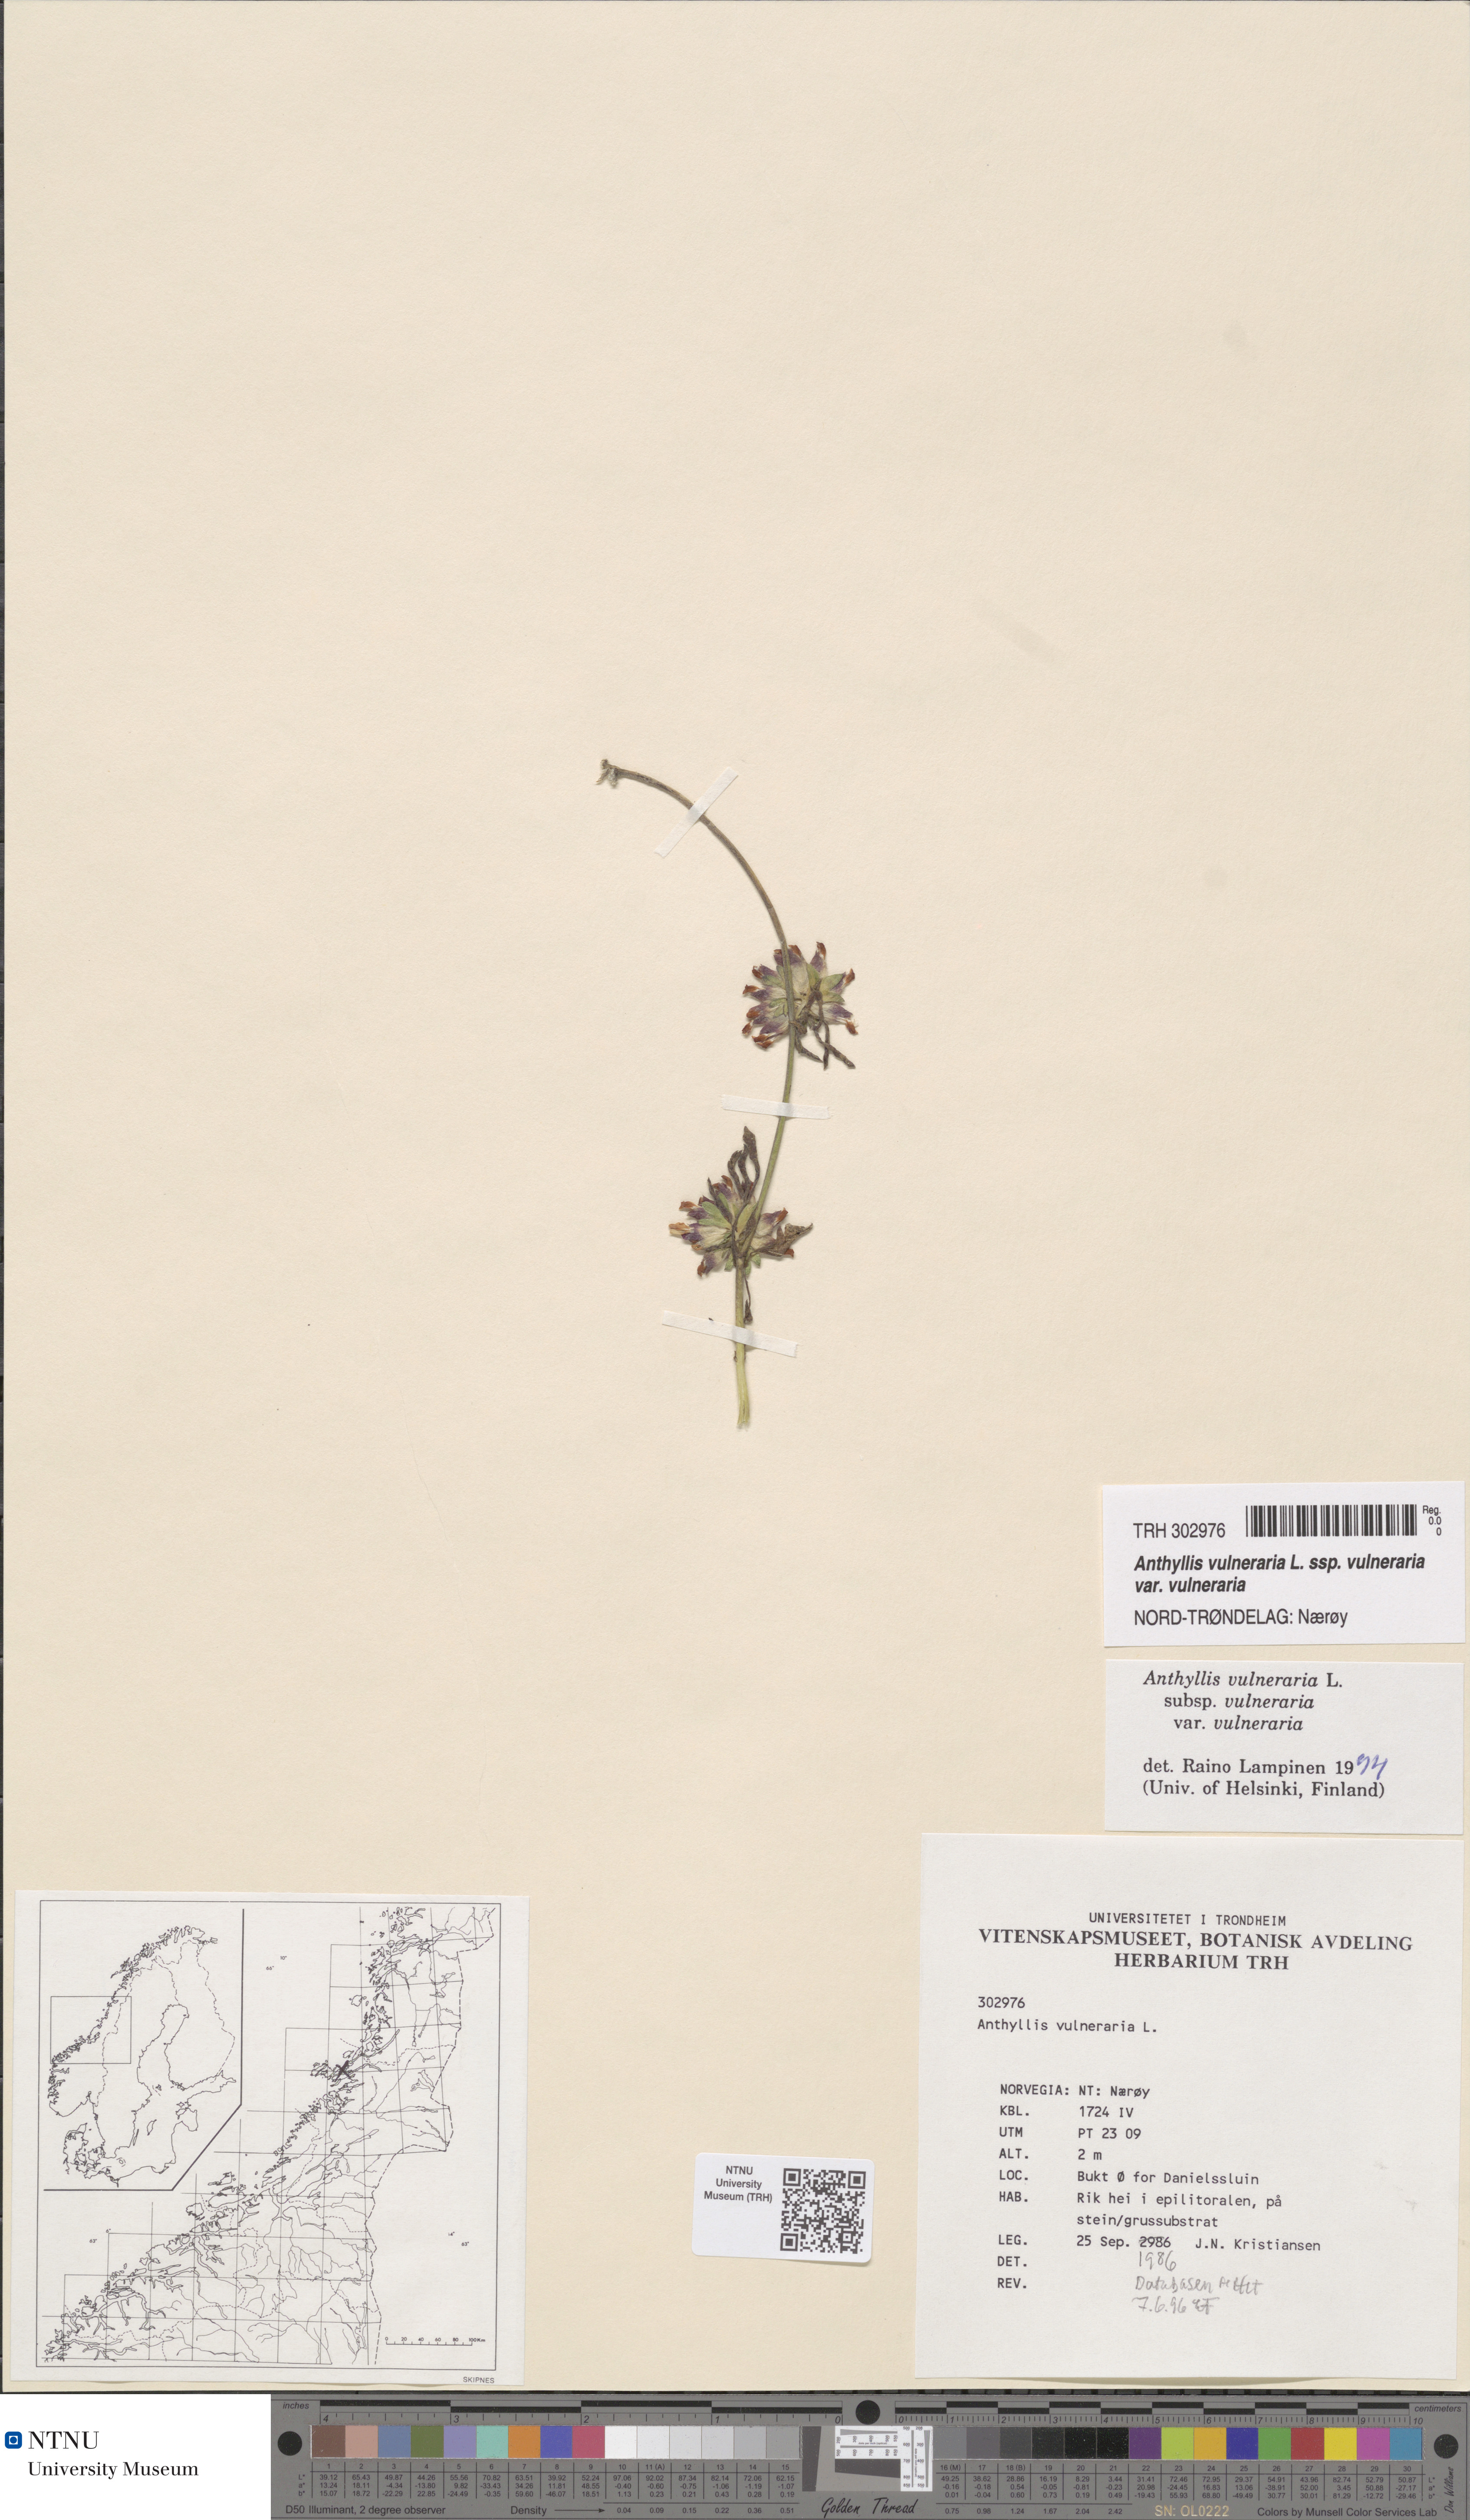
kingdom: Plantae
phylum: Tracheophyta
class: Magnoliopsida
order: Fabales
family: Fabaceae
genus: Anthyllis
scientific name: Anthyllis vulneraria
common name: Kidney vetch
